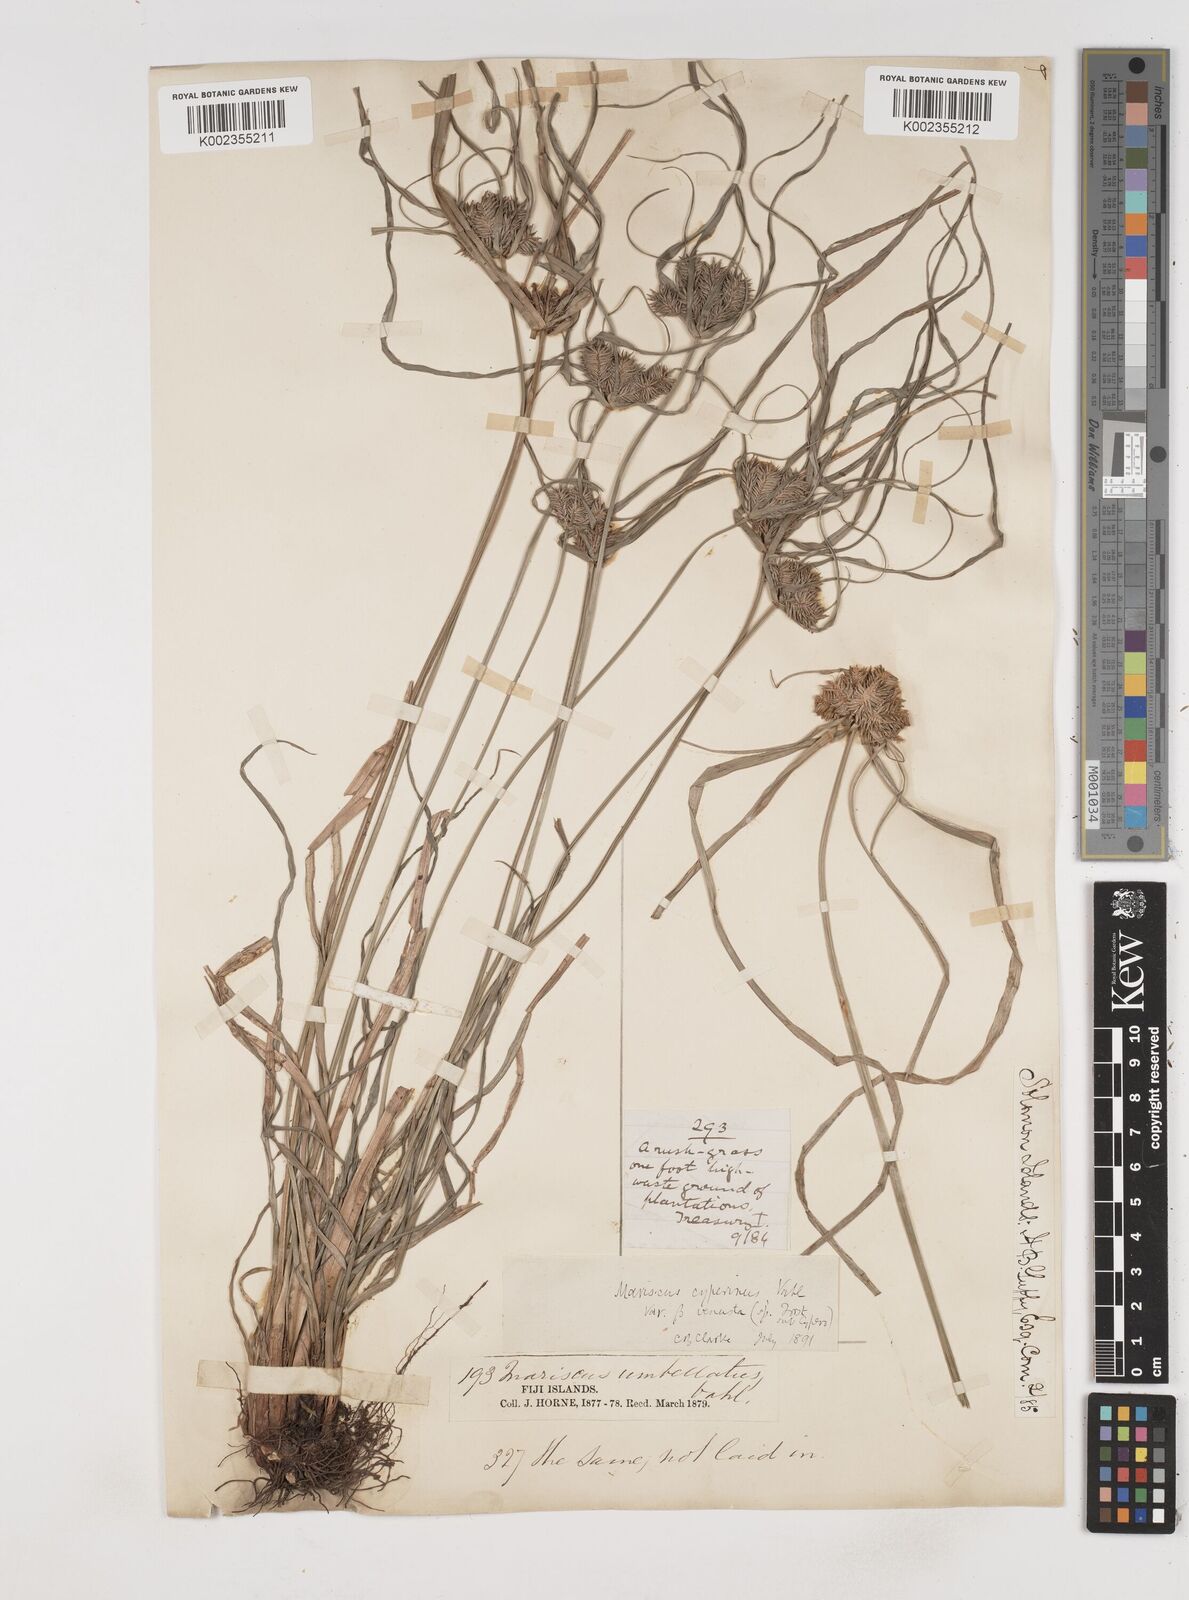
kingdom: Plantae
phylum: Tracheophyta
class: Liliopsida
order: Poales
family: Cyperaceae
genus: Cyperus
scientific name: Cyperus cyperinus
